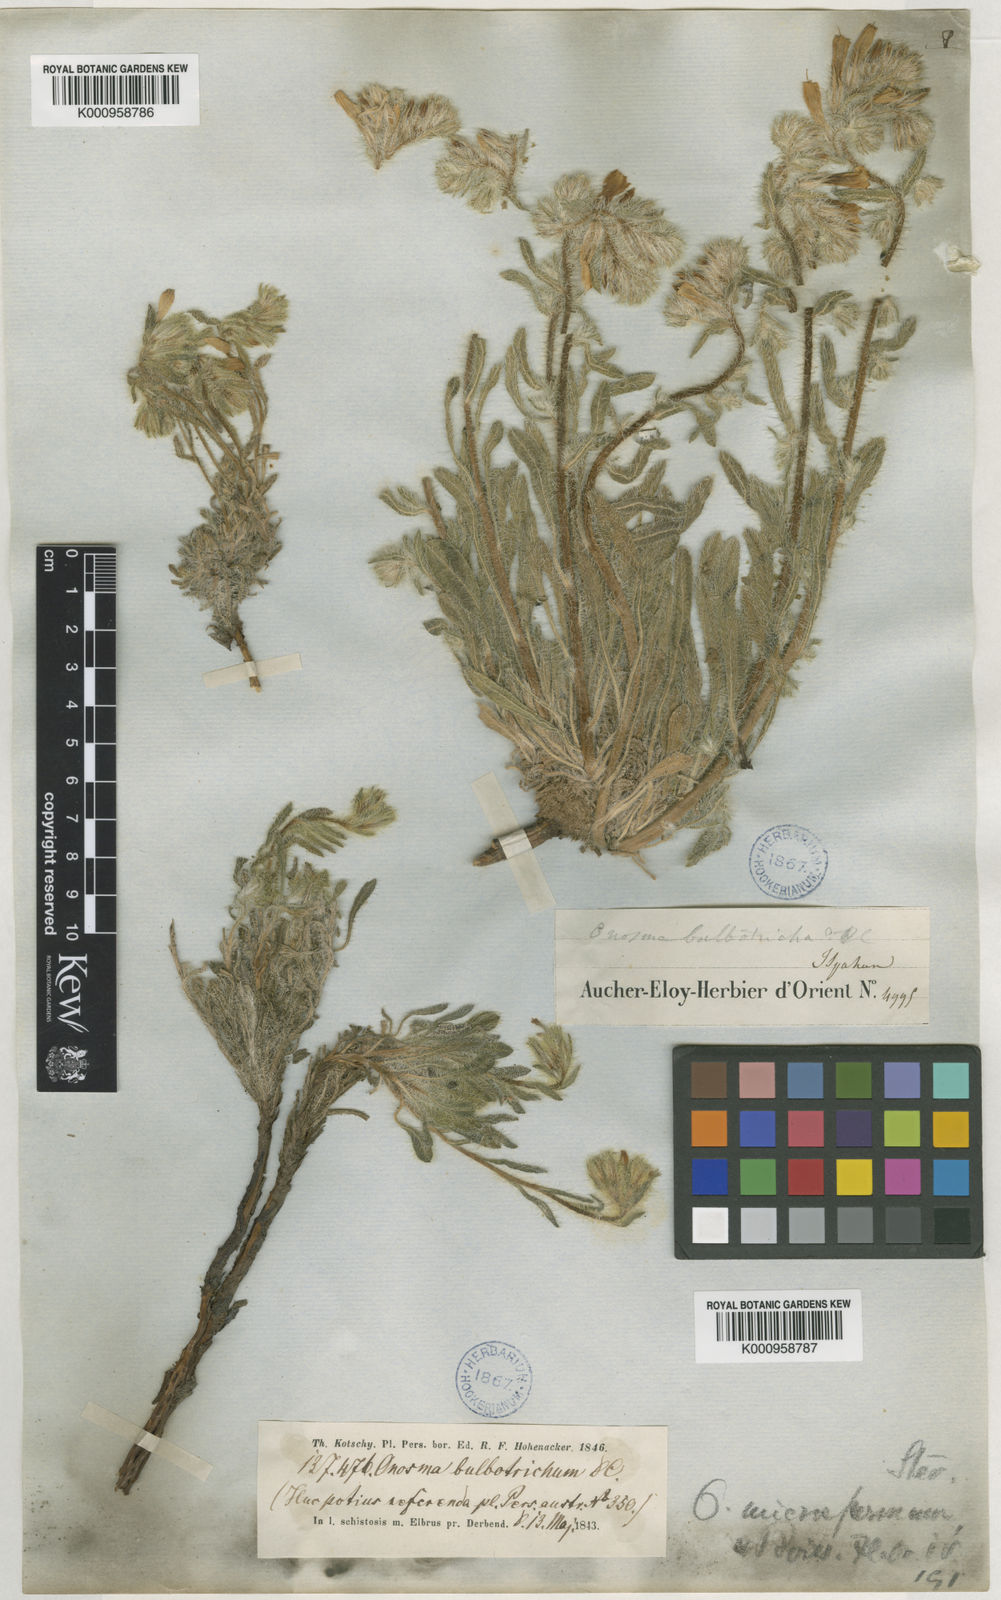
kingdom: Plantae
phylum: Tracheophyta
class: Magnoliopsida
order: Boraginales
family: Boraginaceae
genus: Onosma
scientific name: Onosma microcarpa
